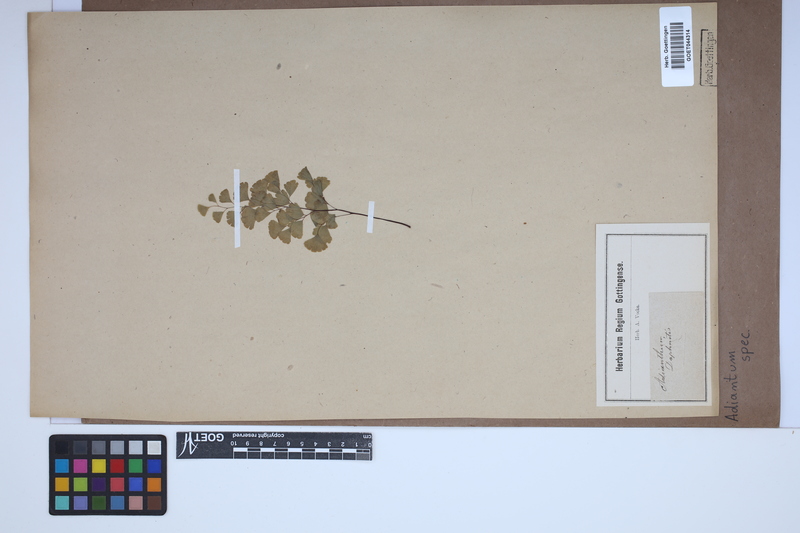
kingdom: Plantae
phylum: Tracheophyta
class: Polypodiopsida
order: Polypodiales
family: Pteridaceae
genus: Adiantum
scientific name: Adiantum
